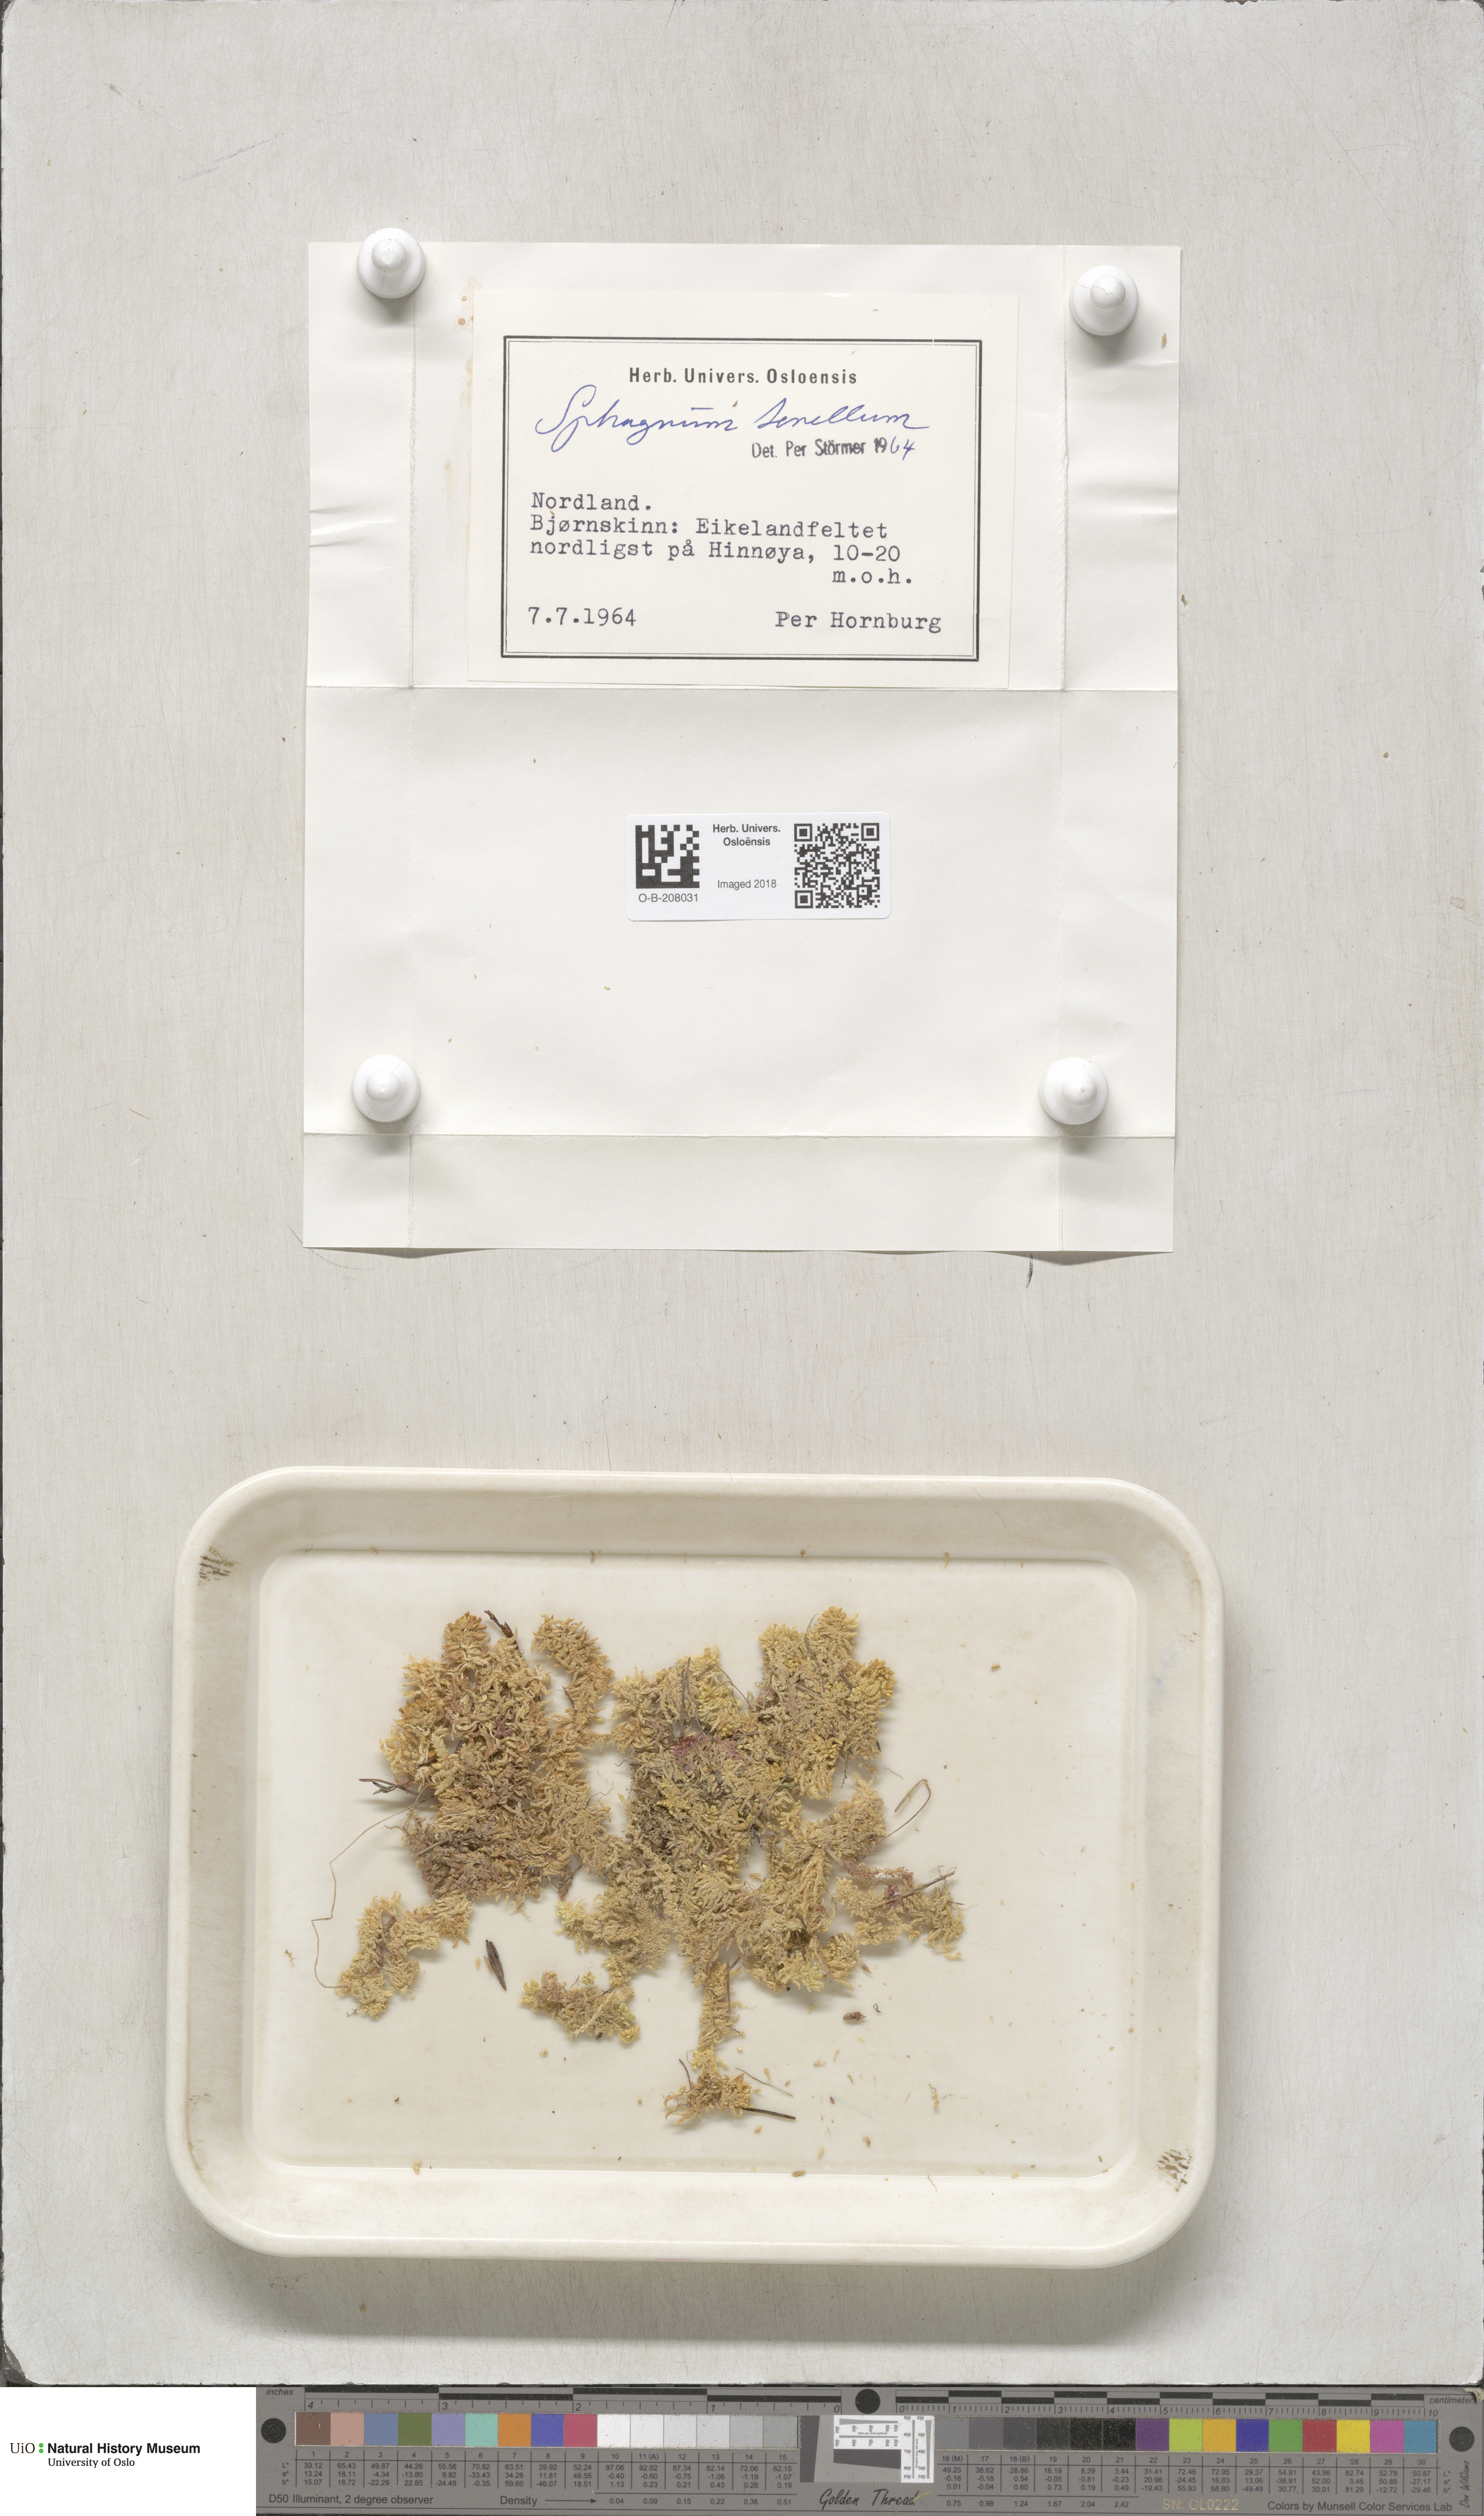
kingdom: Plantae
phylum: Bryophyta
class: Sphagnopsida
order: Sphagnales
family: Sphagnaceae
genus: Sphagnum
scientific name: Sphagnum tenellum
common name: Soft bog-moss
